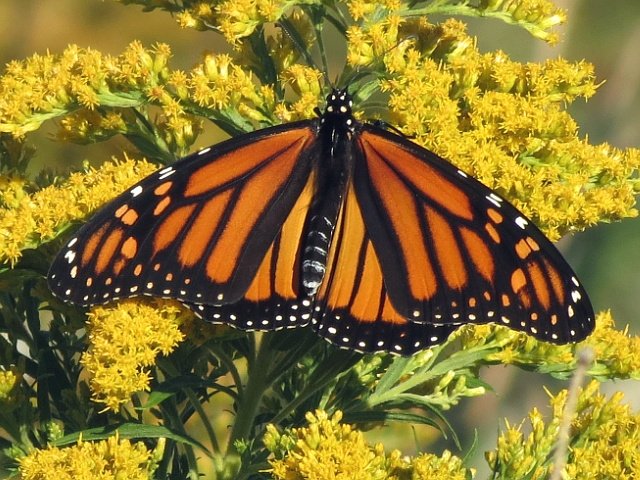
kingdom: Animalia
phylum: Arthropoda
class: Insecta
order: Lepidoptera
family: Nymphalidae
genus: Danaus
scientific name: Danaus plexippus
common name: Monarch
